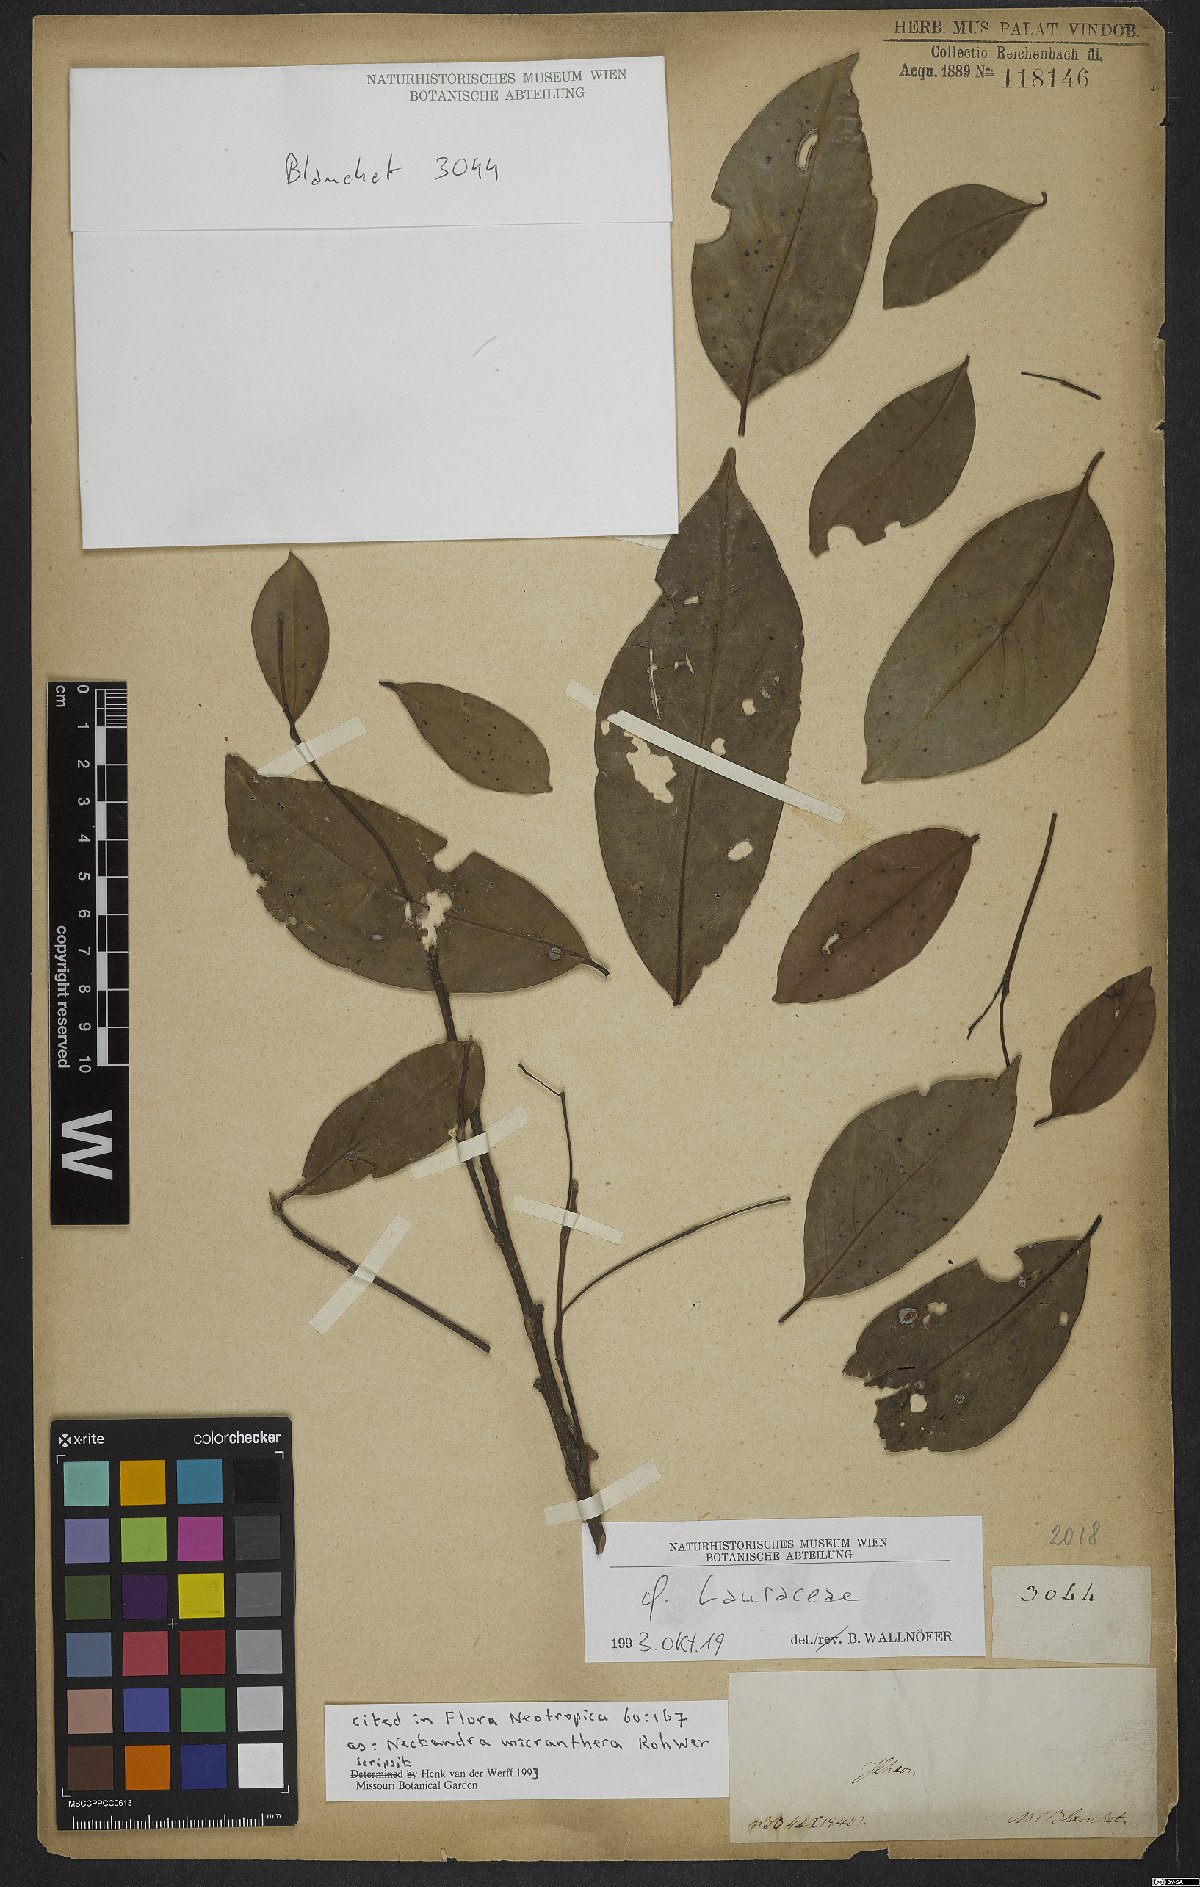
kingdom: Plantae
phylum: Tracheophyta
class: Magnoliopsida
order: Laurales
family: Lauraceae
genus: Nectandra
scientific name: Nectandra micranthera
